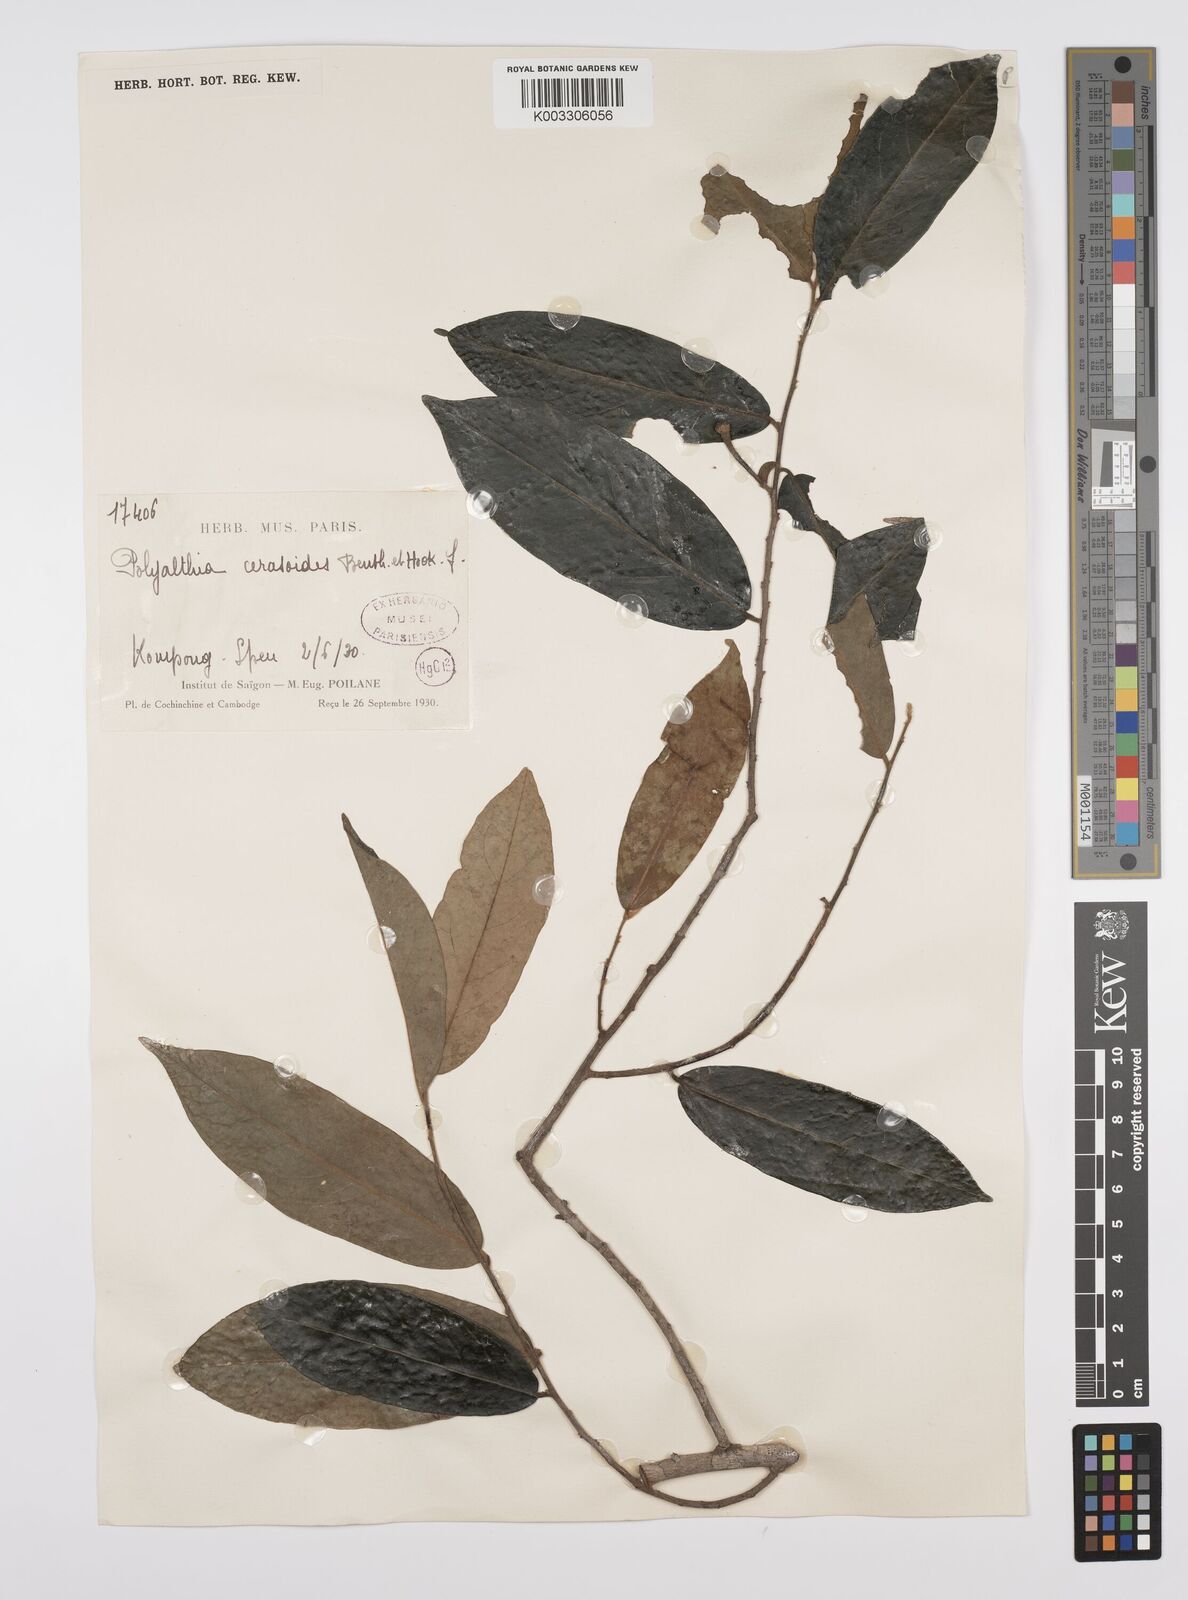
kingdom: Plantae
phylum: Tracheophyta
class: Magnoliopsida
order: Magnoliales
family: Annonaceae
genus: Hubera
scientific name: Hubera cerasoides
